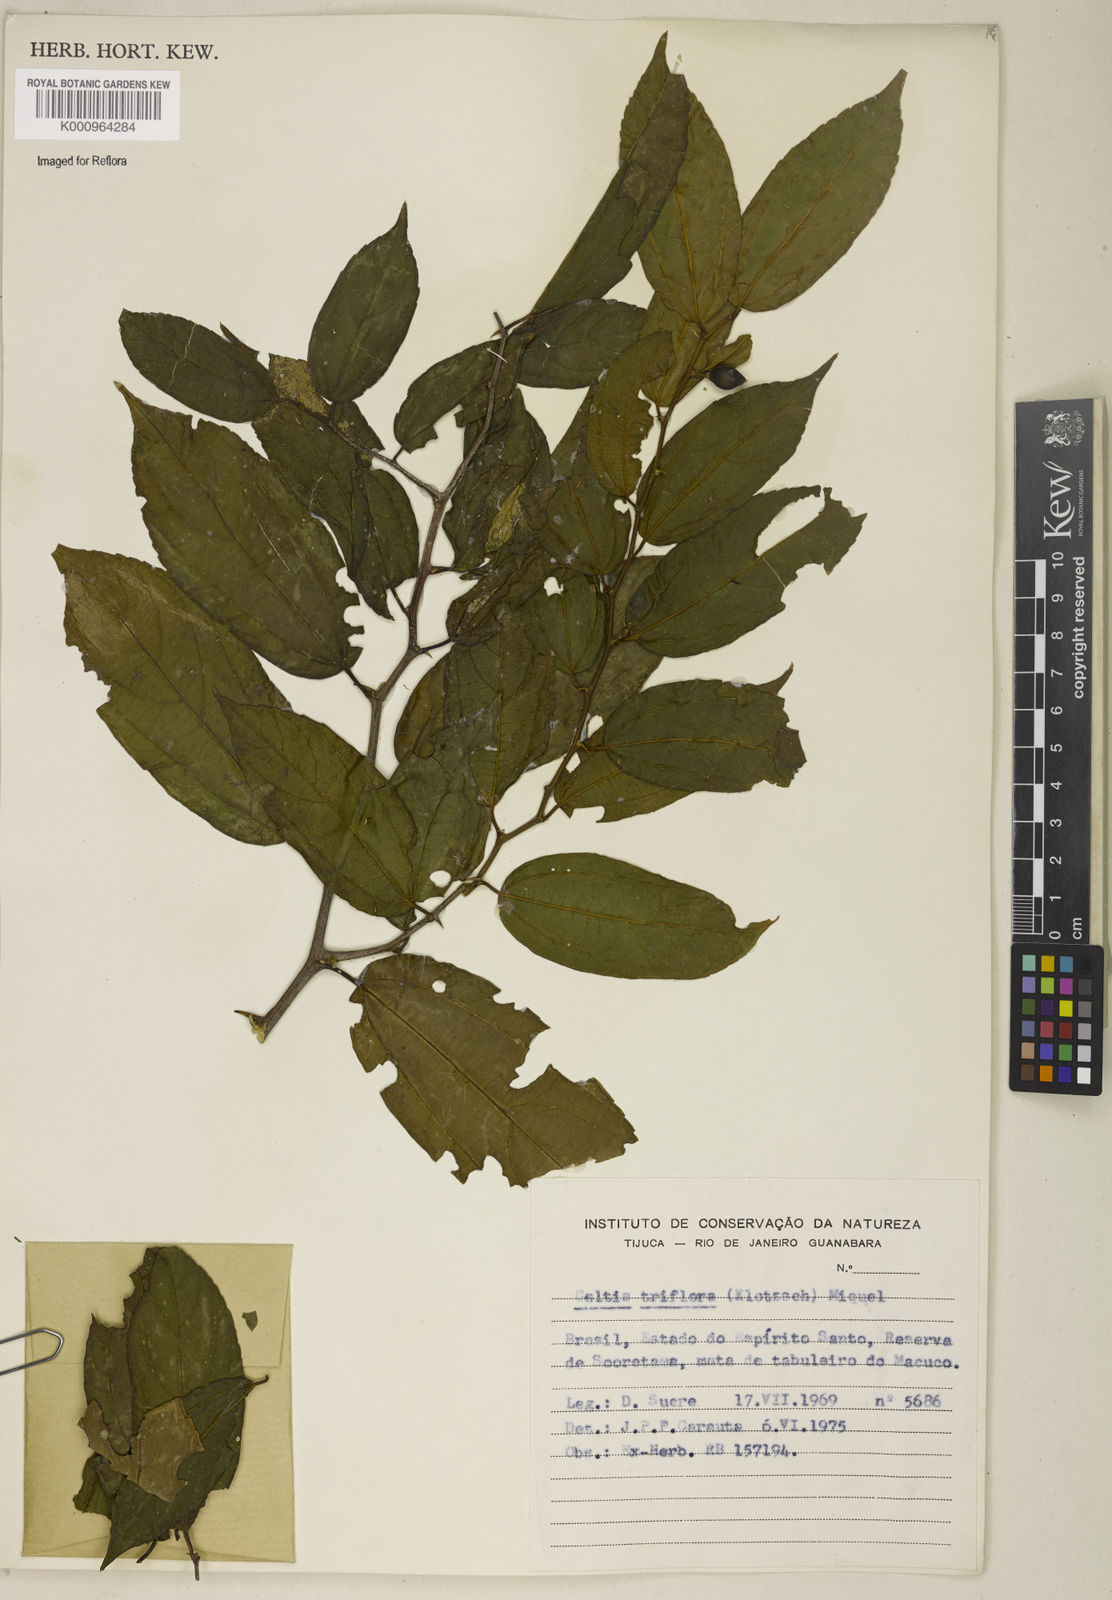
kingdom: Plantae
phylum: Tracheophyta
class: Magnoliopsida
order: Rosales
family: Cannabaceae
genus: Celtis
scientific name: Celtis iguanaea
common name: Iguana hackberry
